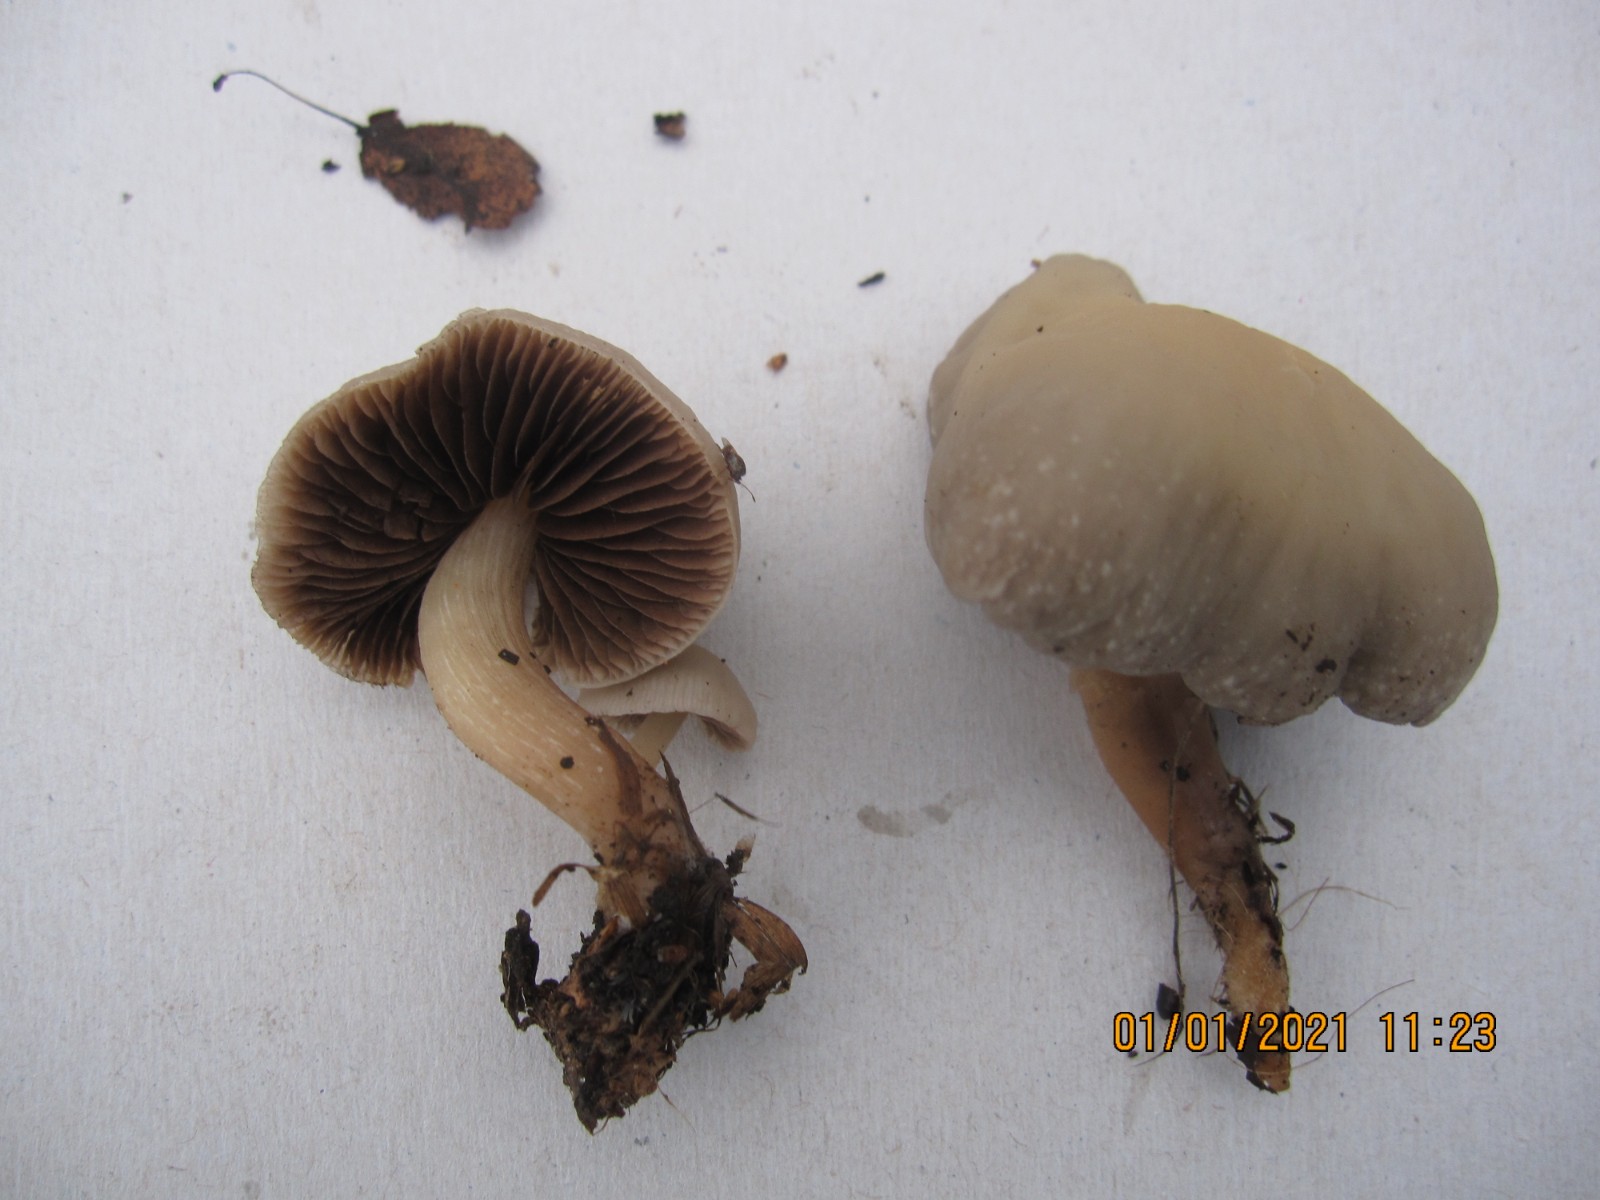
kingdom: Fungi
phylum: Basidiomycota
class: Agaricomycetes
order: Agaricales
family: Psathyrellaceae
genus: Homophron
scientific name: Homophron spadiceum
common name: daddelbrun mørkhat
